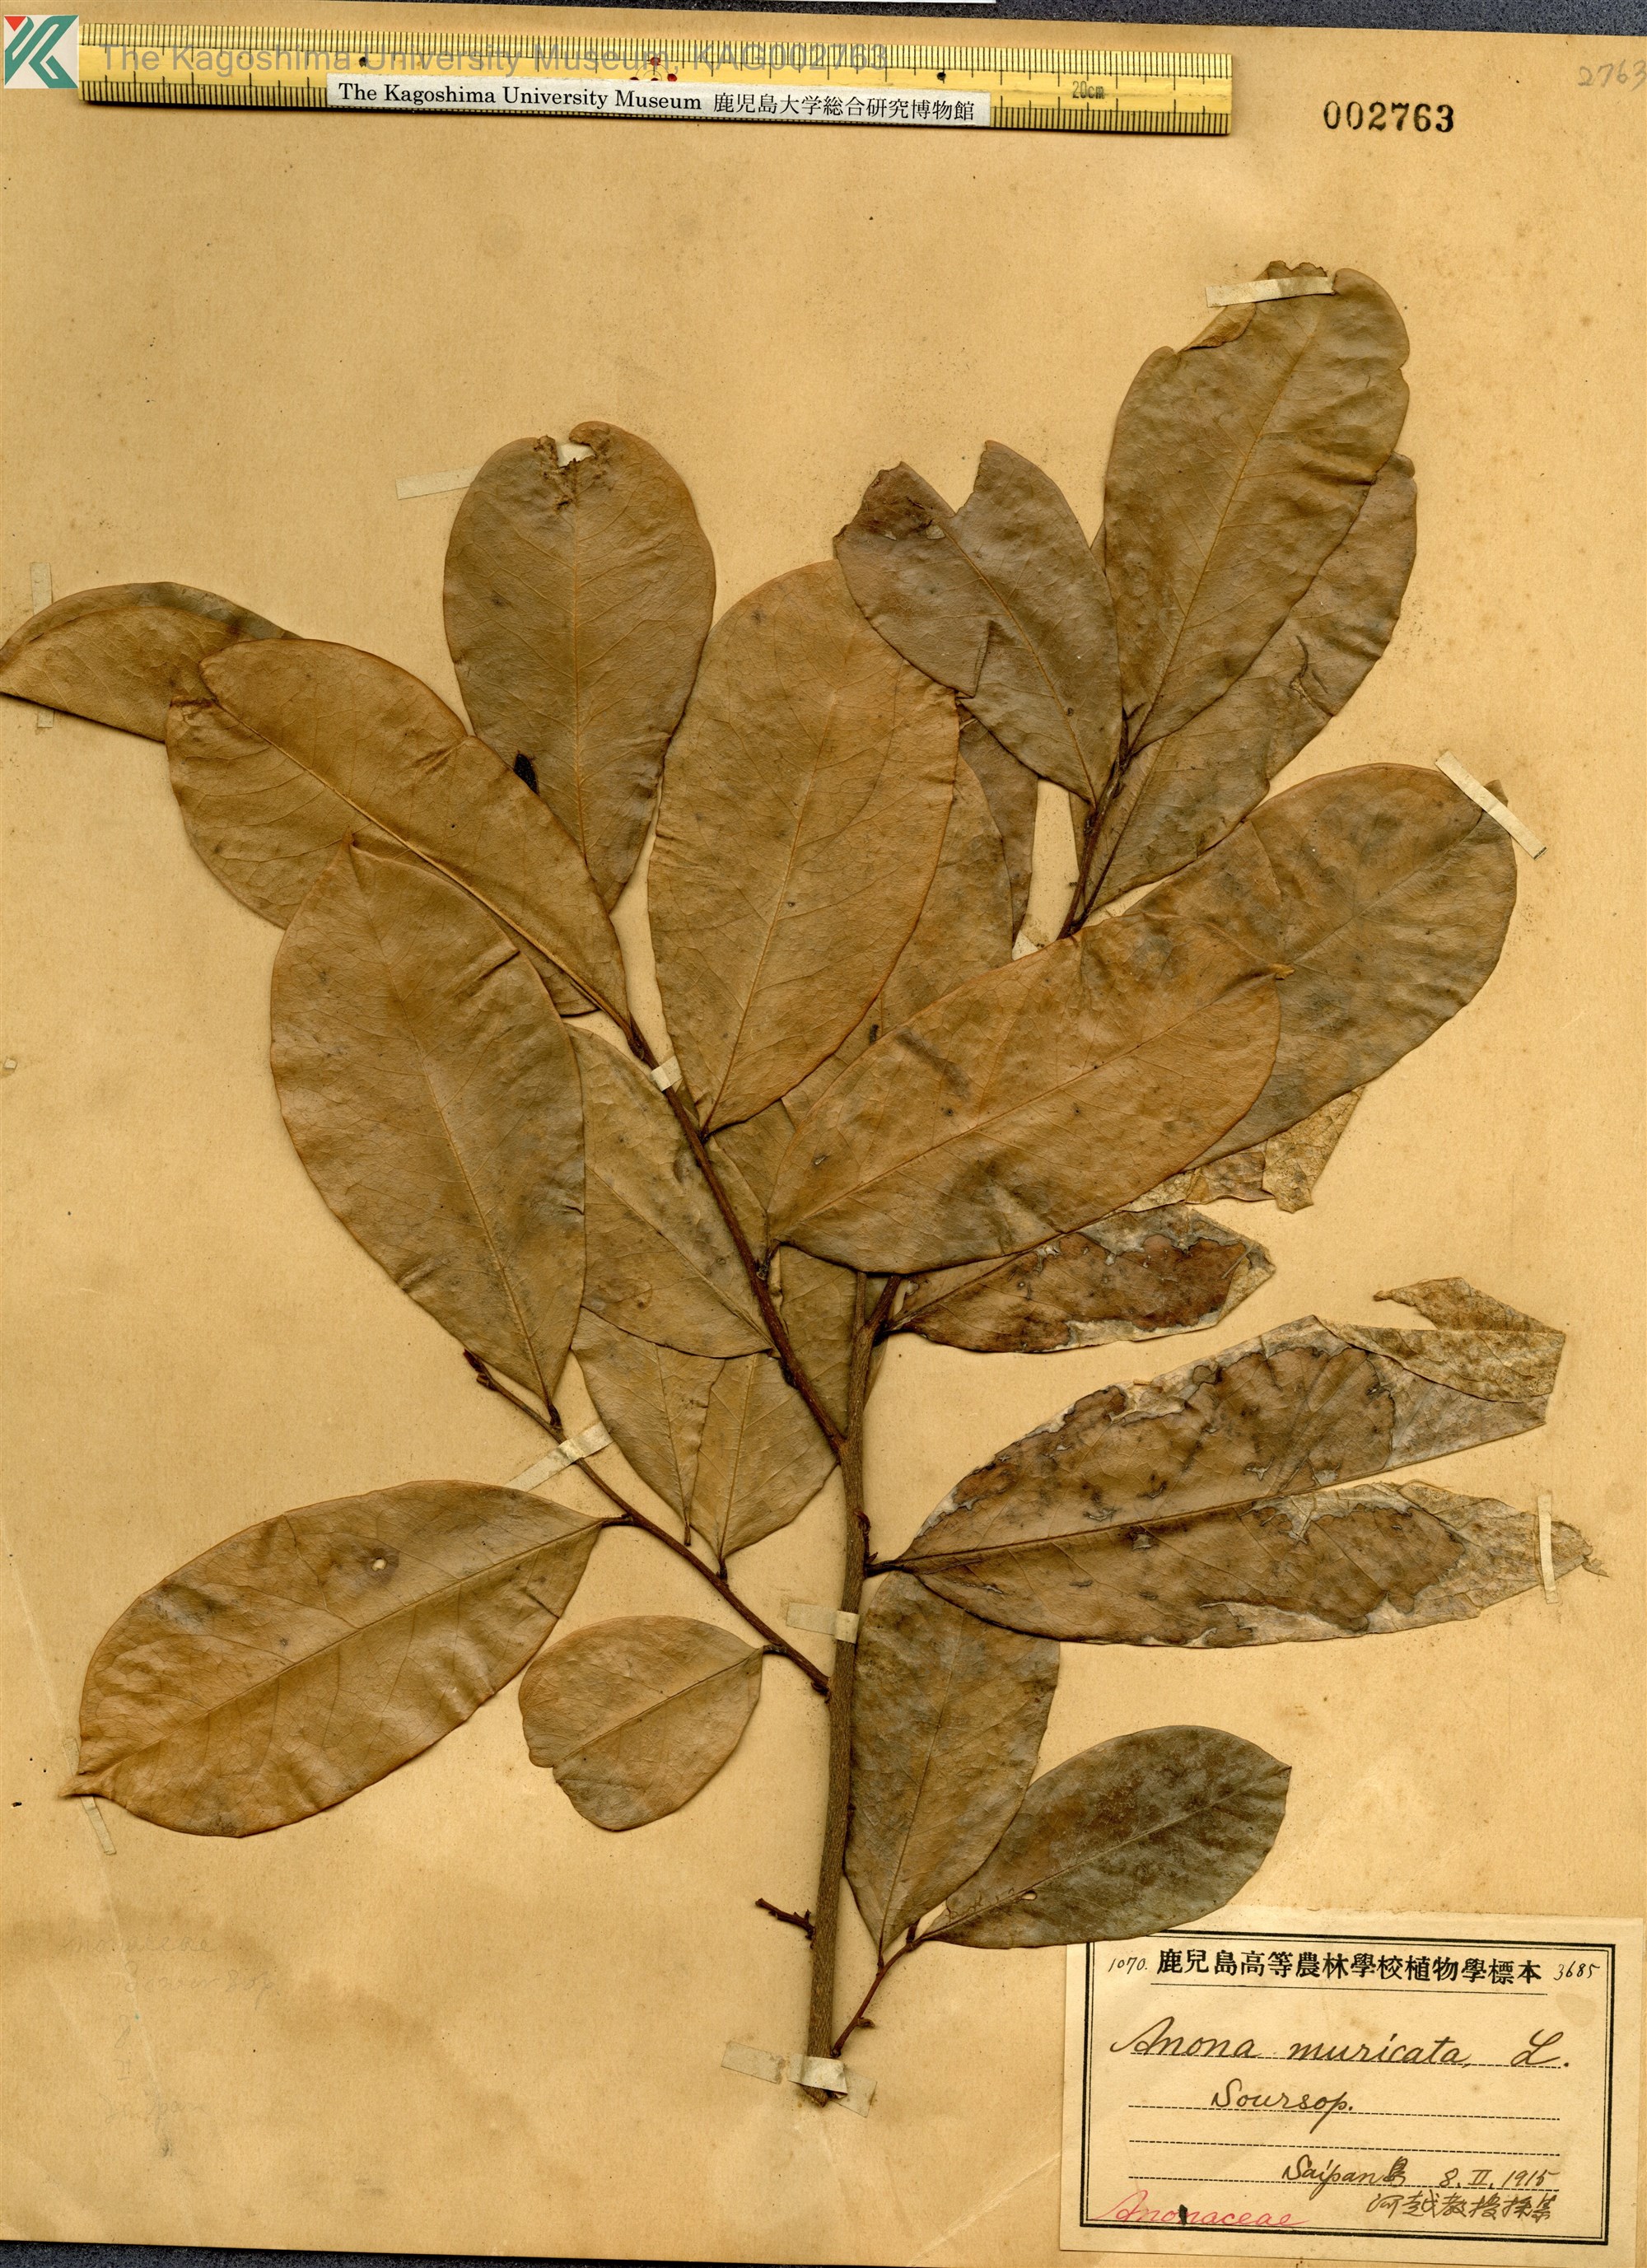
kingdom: Plantae
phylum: Tracheophyta
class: Magnoliopsida
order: Magnoliales
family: Annonaceae
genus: Annona
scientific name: Annona muricata
